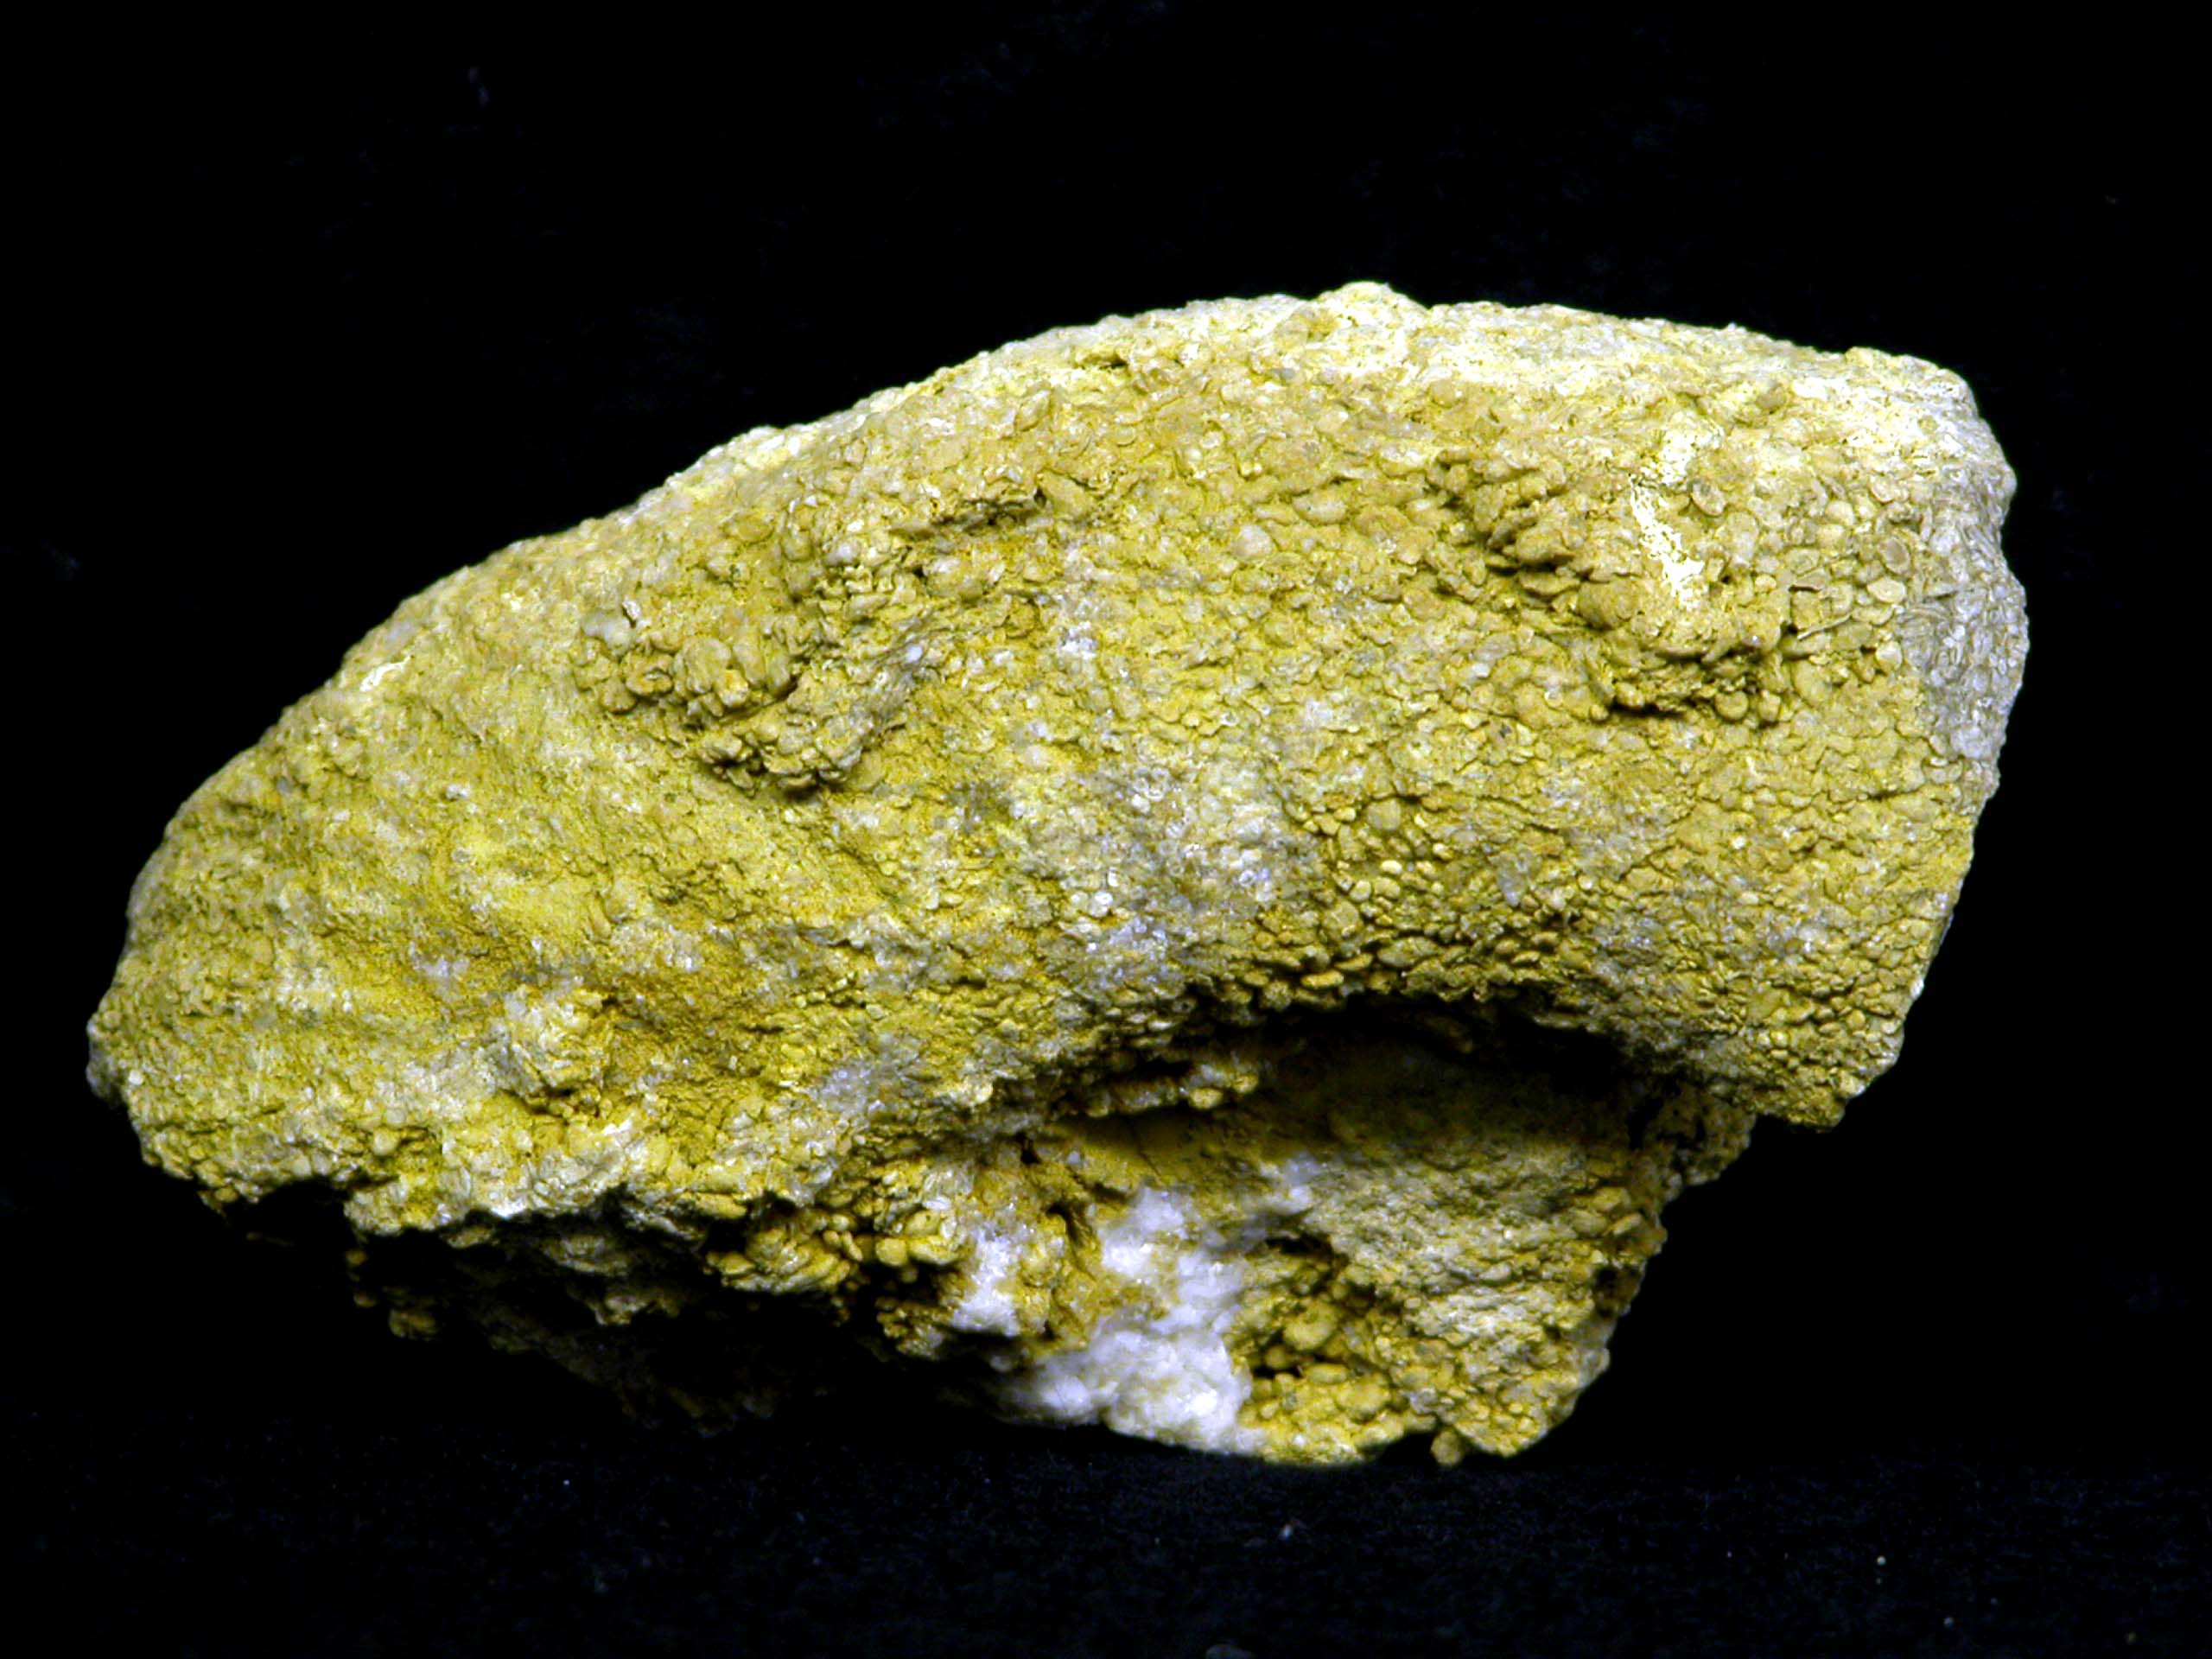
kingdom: Animalia
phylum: Mollusca
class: Cephalopoda
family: Perisphinctidae
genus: Perisphinctes
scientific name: Perisphinctes
